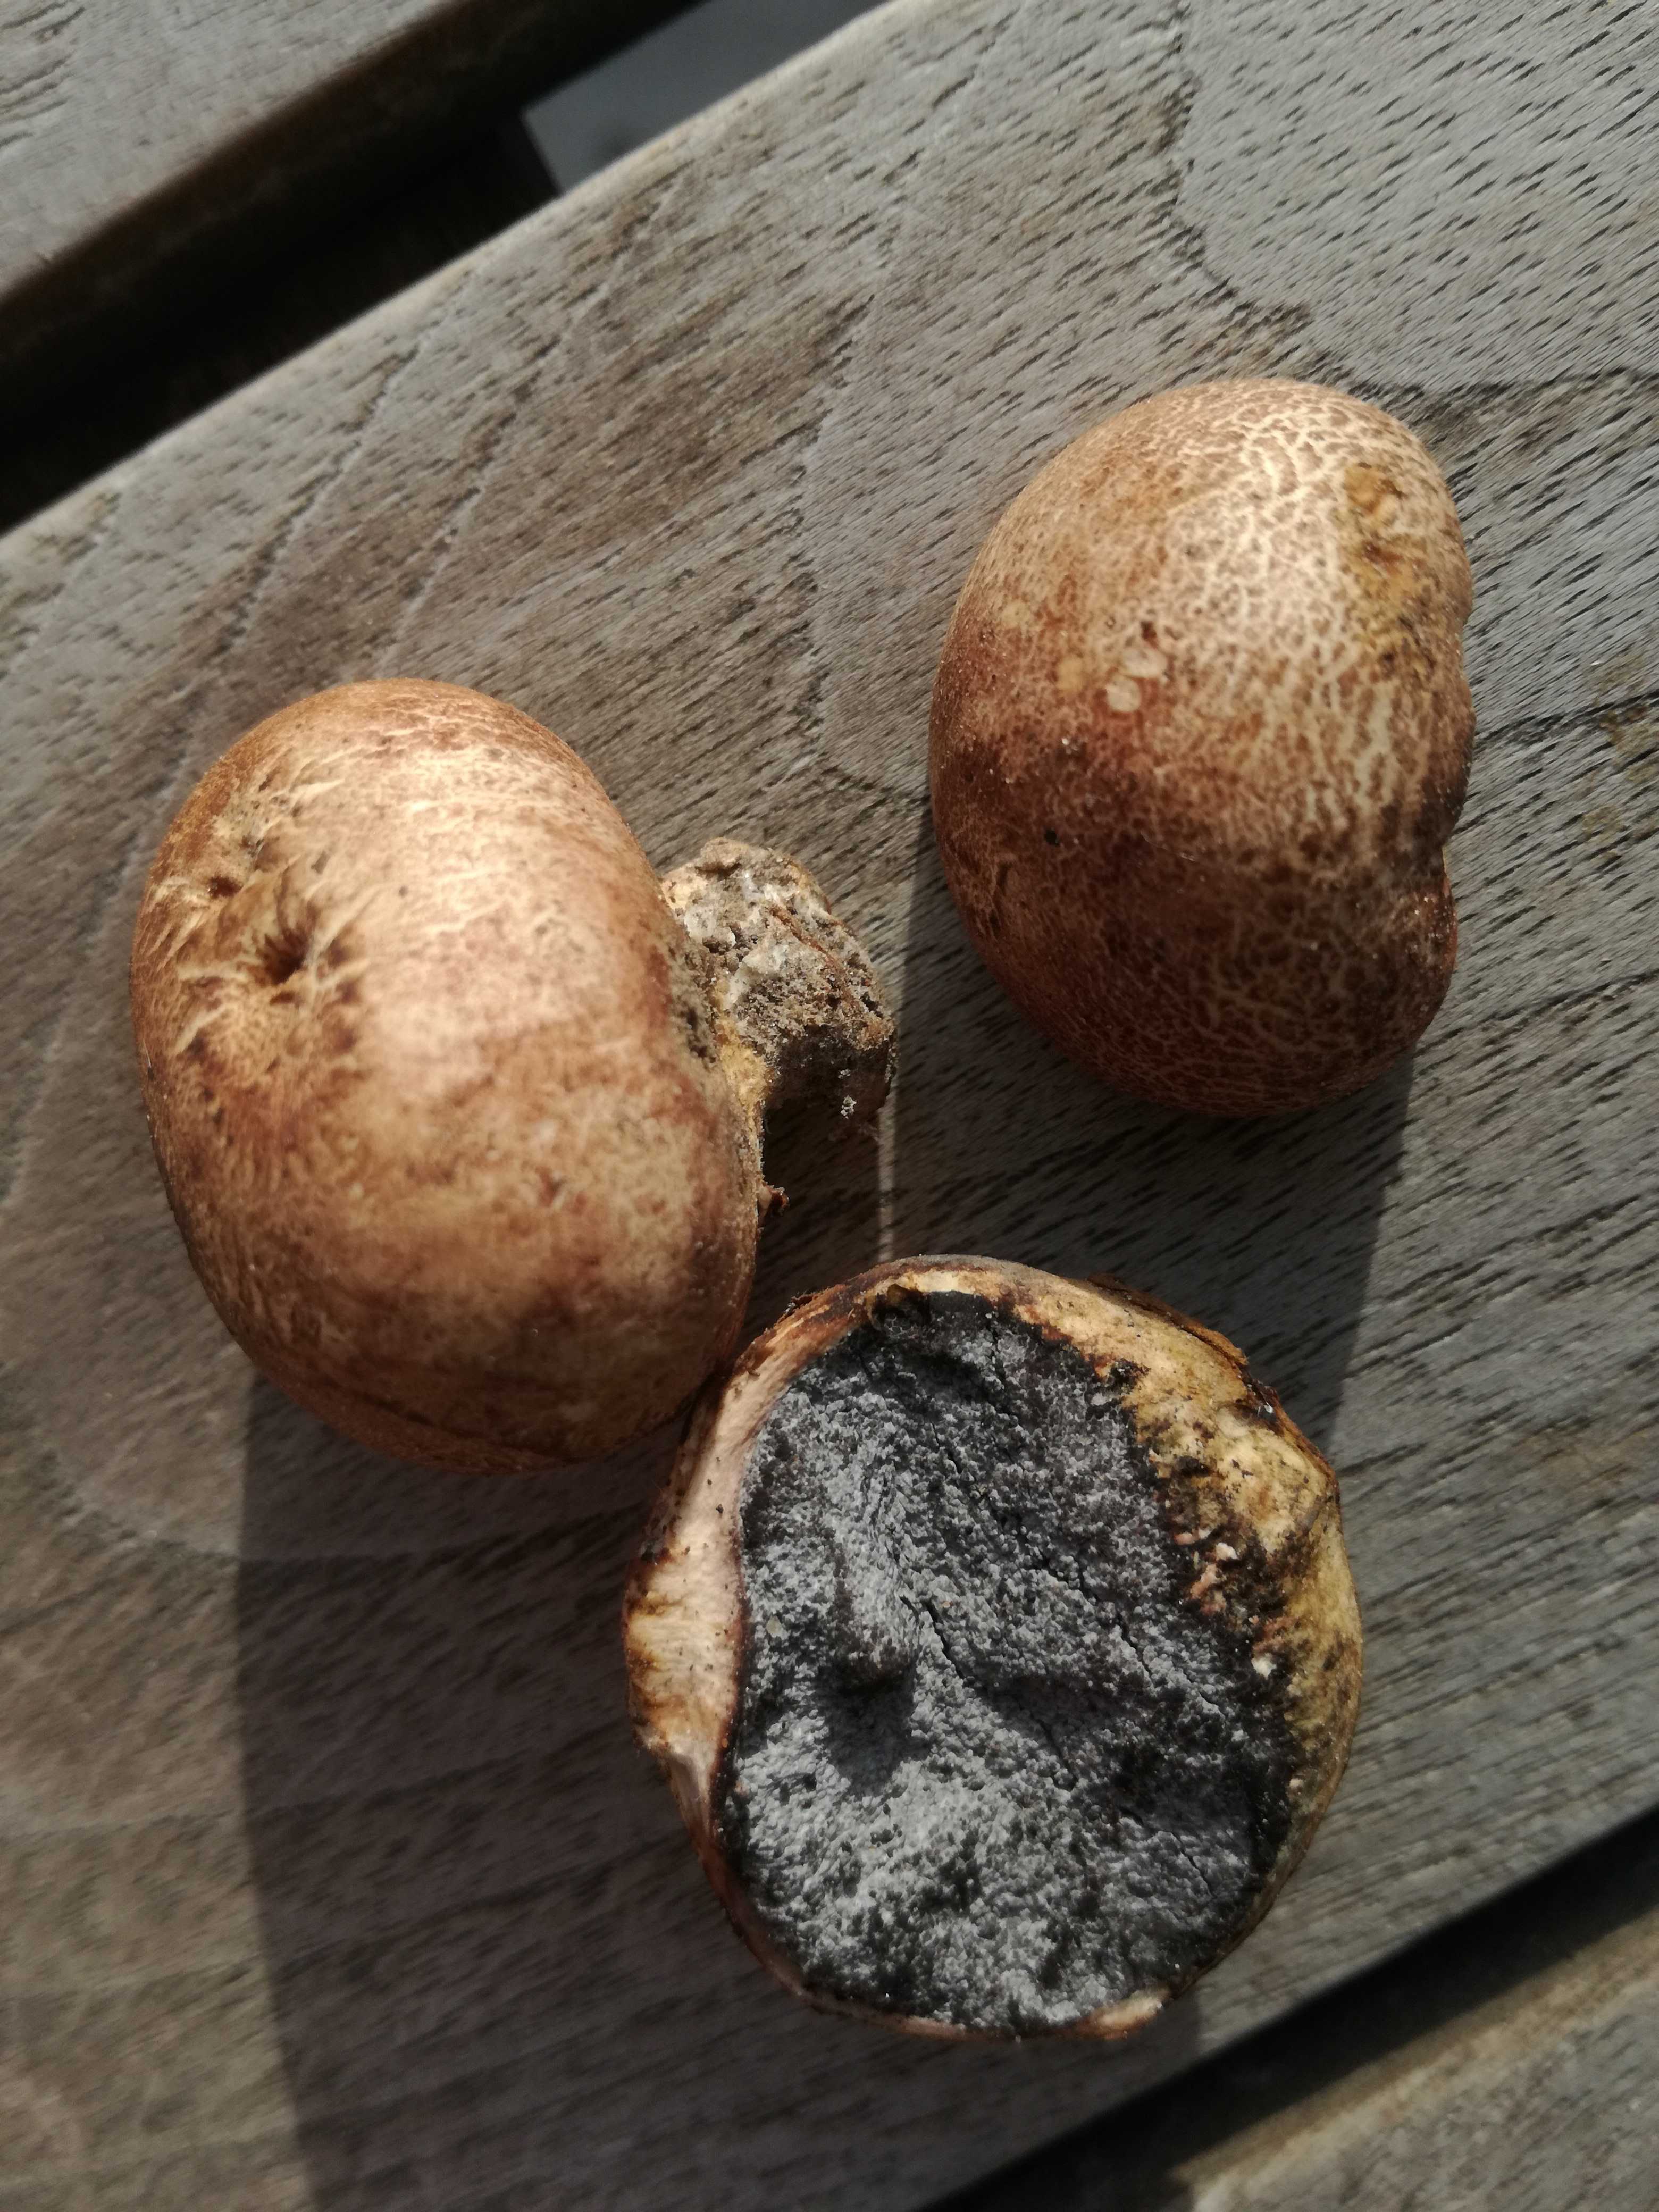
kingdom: Fungi
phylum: Basidiomycota
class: Agaricomycetes
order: Boletales
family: Sclerodermataceae
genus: Scleroderma
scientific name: Scleroderma bovista
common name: bovist-bruskbold
